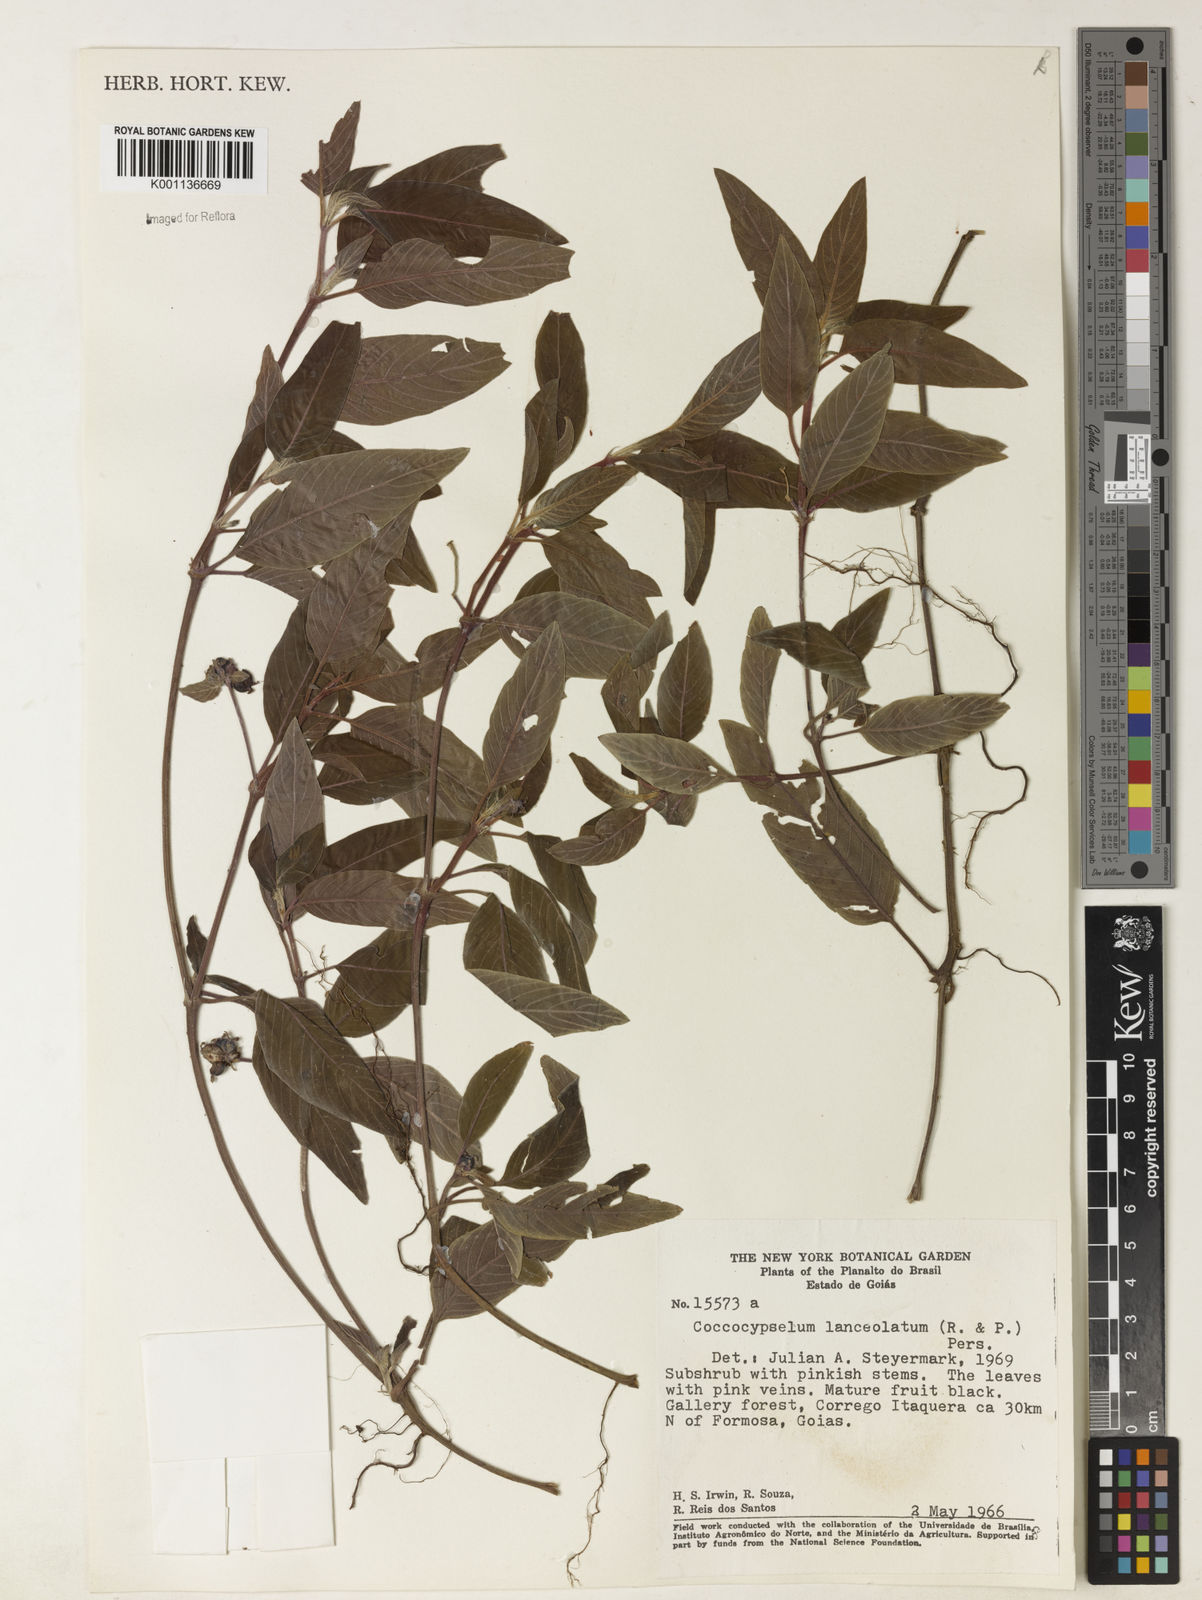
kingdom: Plantae
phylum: Tracheophyta
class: Magnoliopsida
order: Gentianales
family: Rubiaceae
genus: Coccocypselum
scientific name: Coccocypselum lanceolatum
